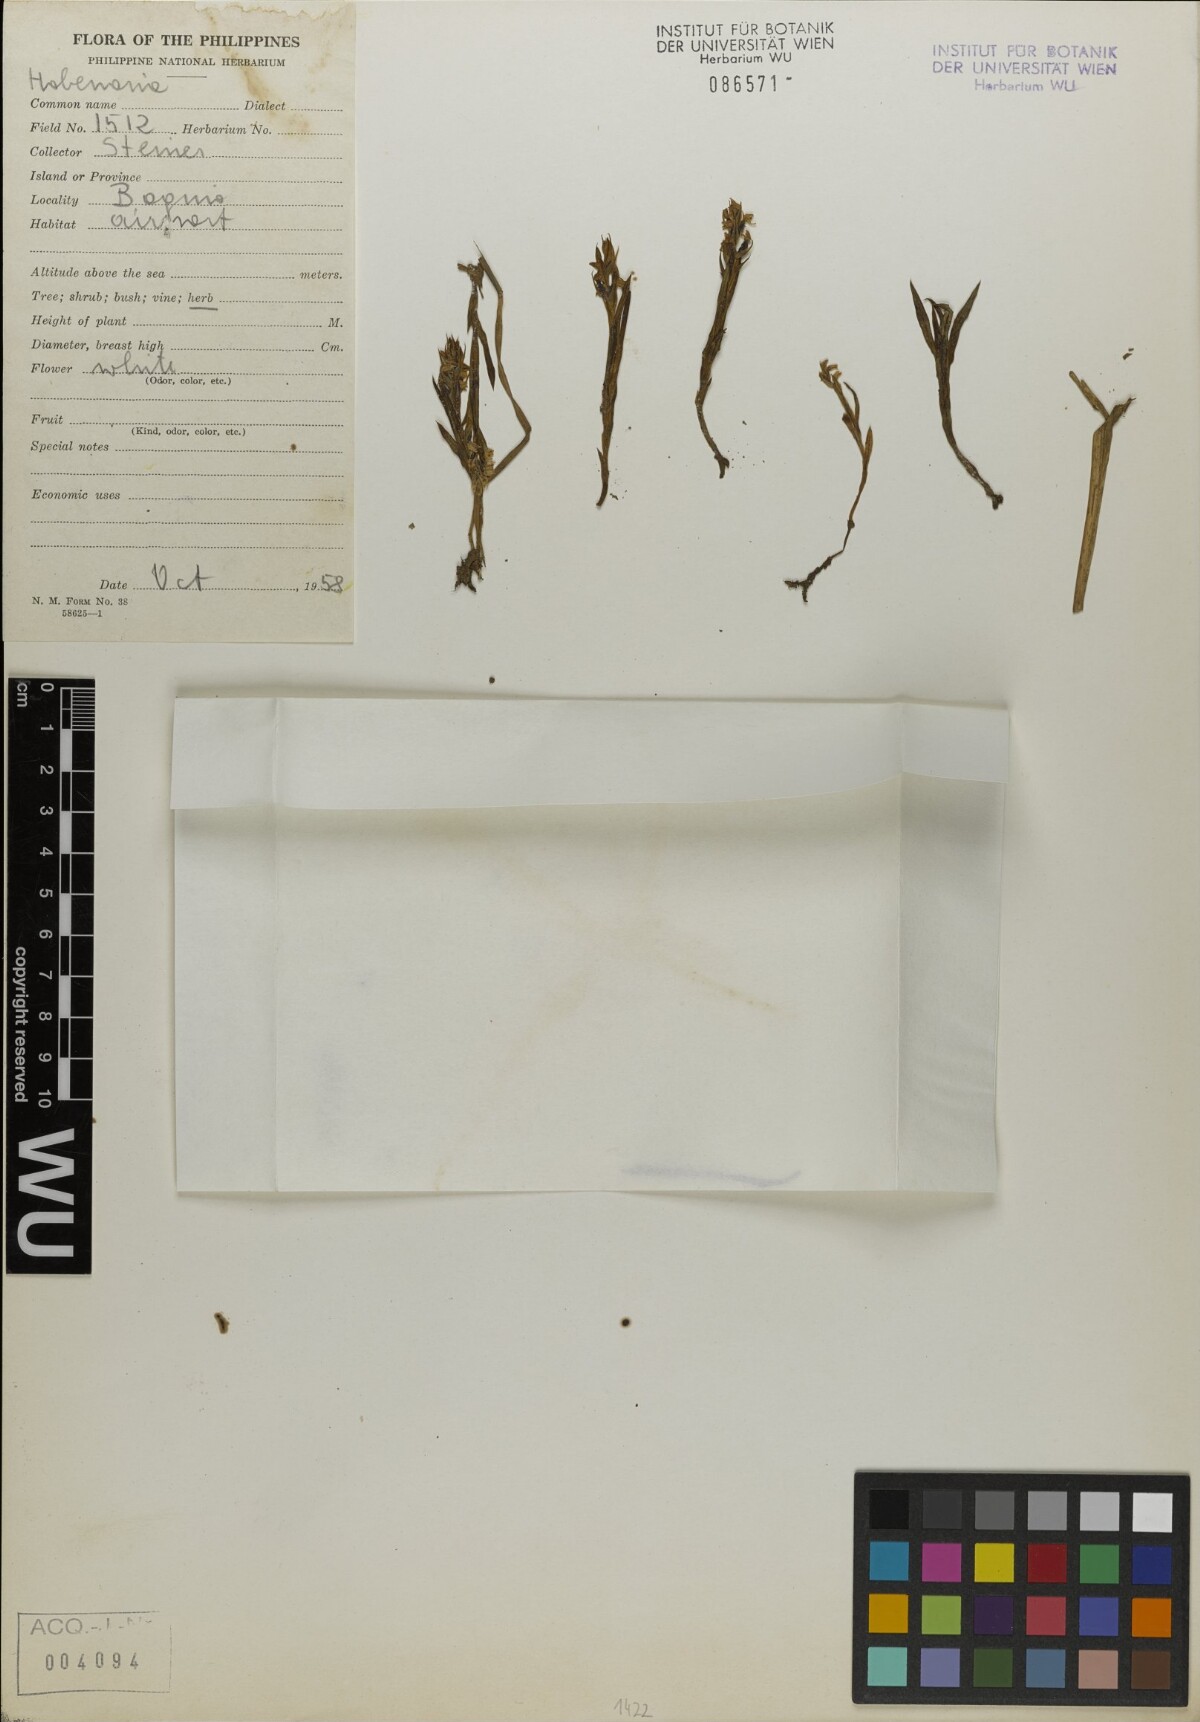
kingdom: Plantae
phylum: Tracheophyta
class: Liliopsida
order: Asparagales
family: Orchidaceae
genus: Habenaria
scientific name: Habenaria
